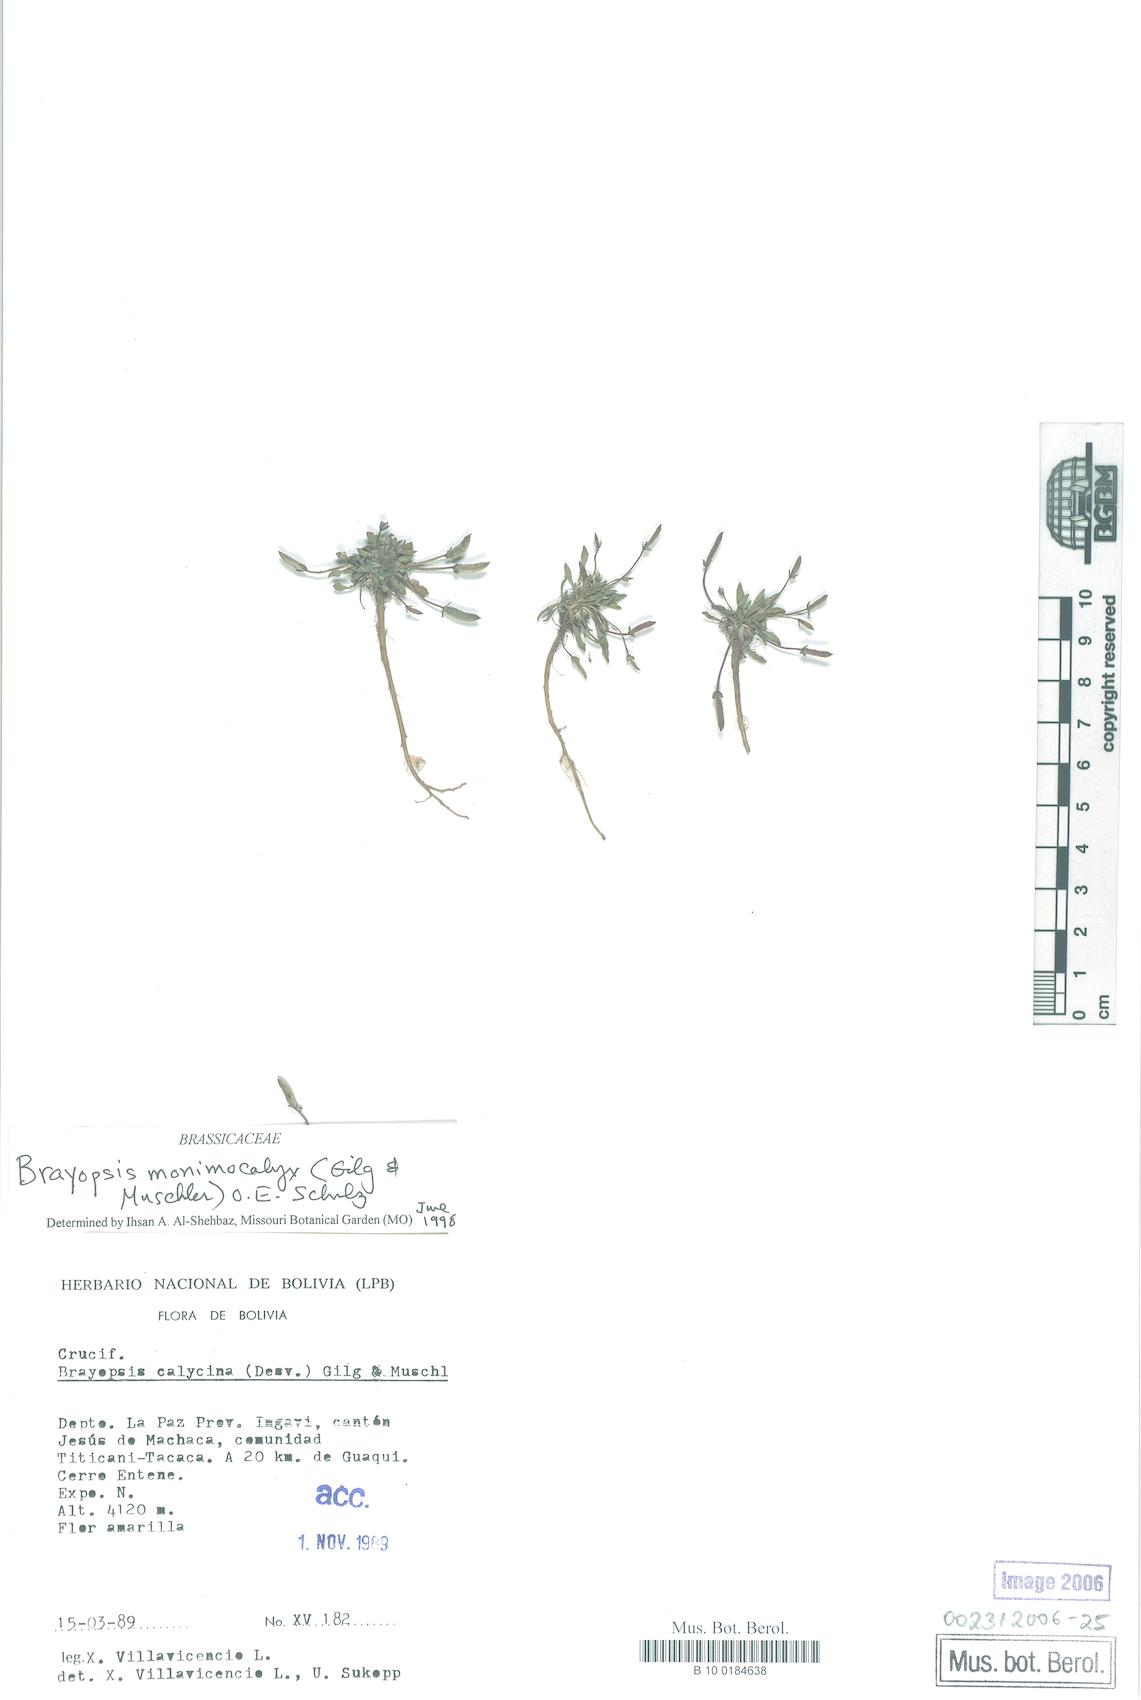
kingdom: Plantae
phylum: Tracheophyta
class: Magnoliopsida
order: Brassicales
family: Brassicaceae
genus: Brayopsis
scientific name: Brayopsis monimocalyx
